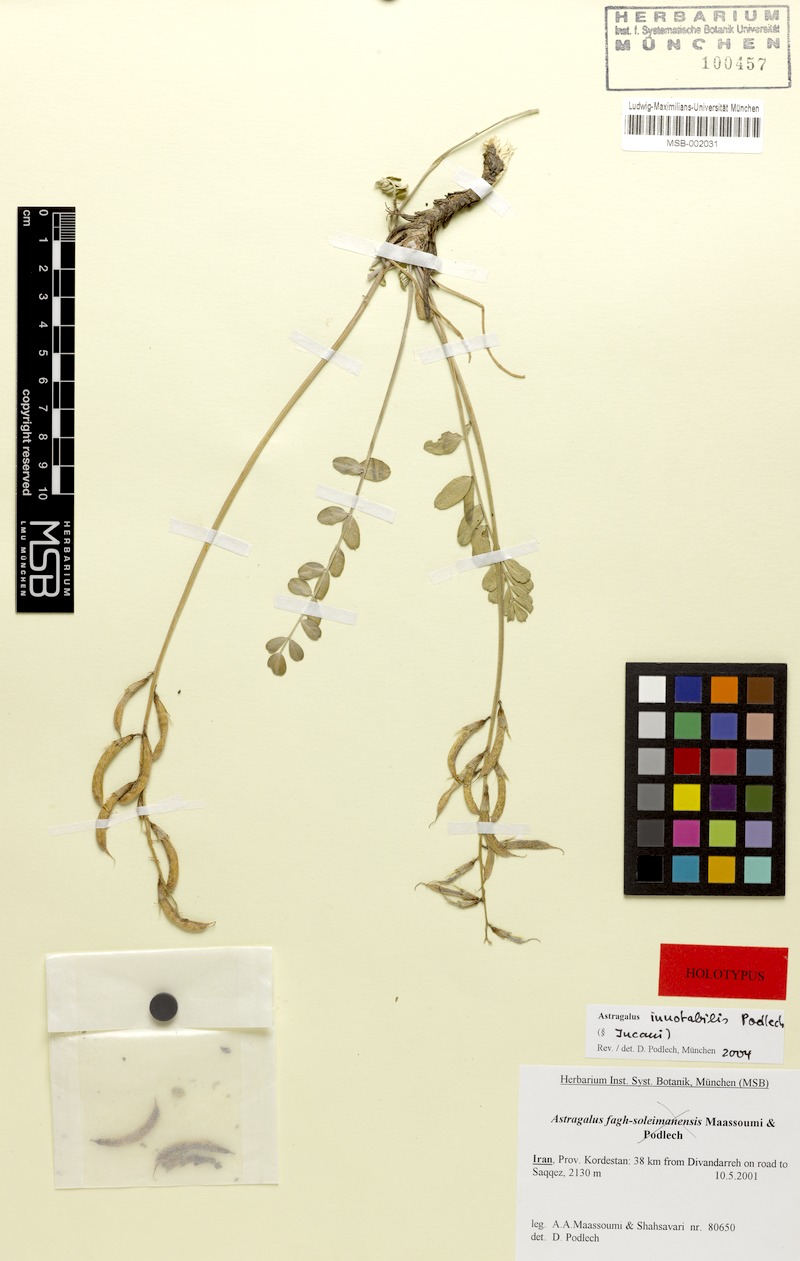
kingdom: Plantae
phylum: Tracheophyta
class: Magnoliopsida
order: Fabales
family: Fabaceae
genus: Astragalus
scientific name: Astragalus innotabilis
